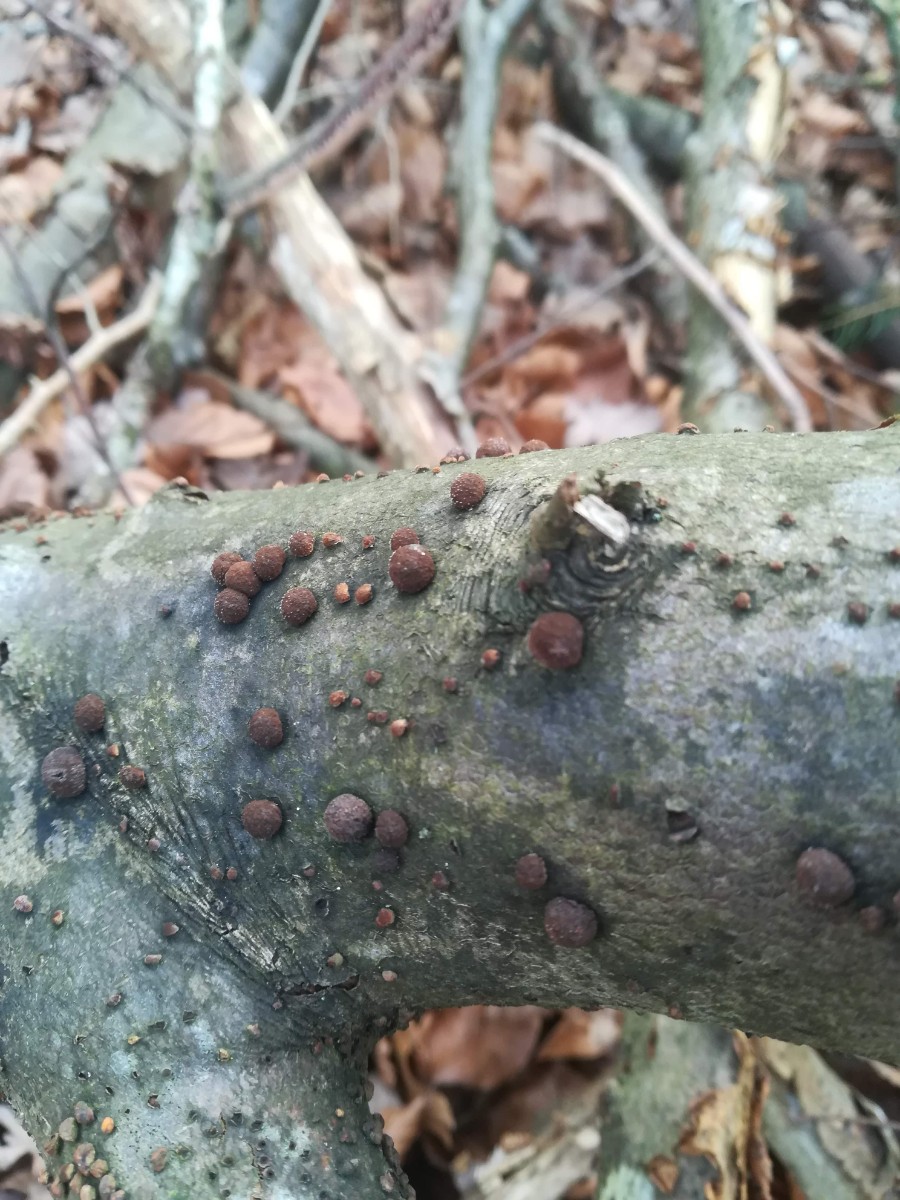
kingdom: Fungi
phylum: Ascomycota
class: Sordariomycetes
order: Xylariales
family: Hypoxylaceae
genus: Hypoxylon
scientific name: Hypoxylon fragiforme
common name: kuljordbær
